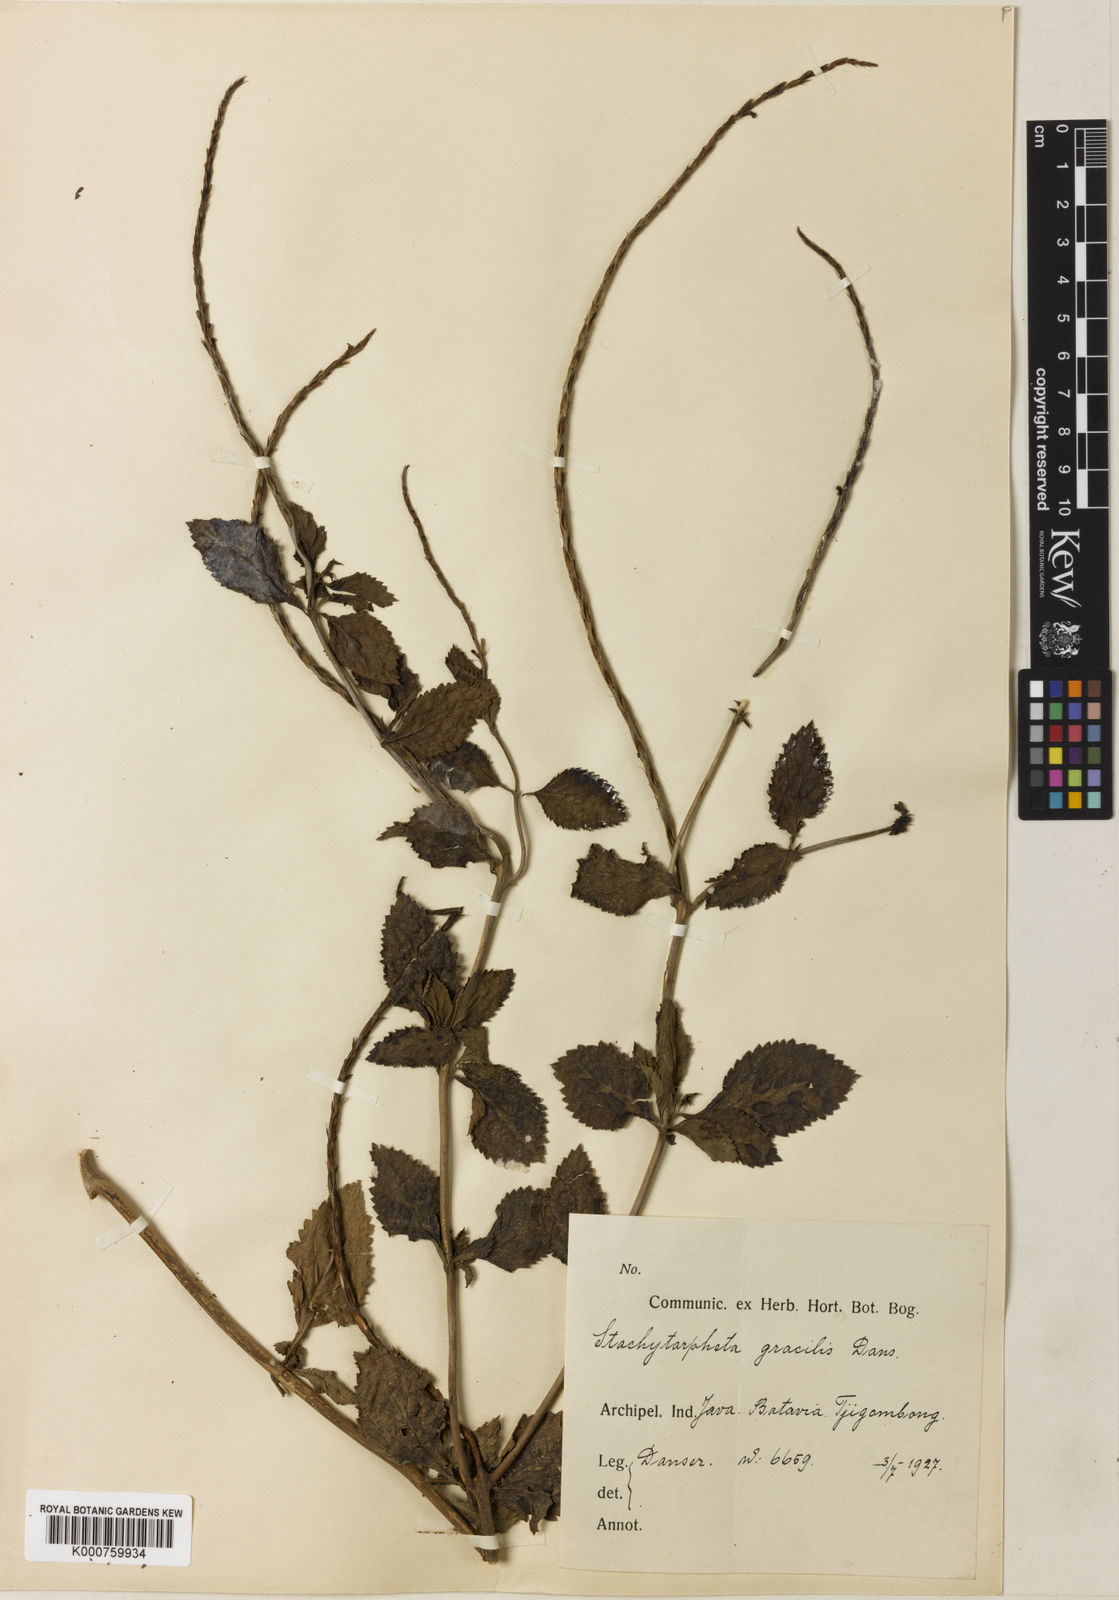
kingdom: Plantae
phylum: Tracheophyta
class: Magnoliopsida
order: Lamiales
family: Verbenaceae
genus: Stachytarpheta
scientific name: Stachytarpheta gracilis
